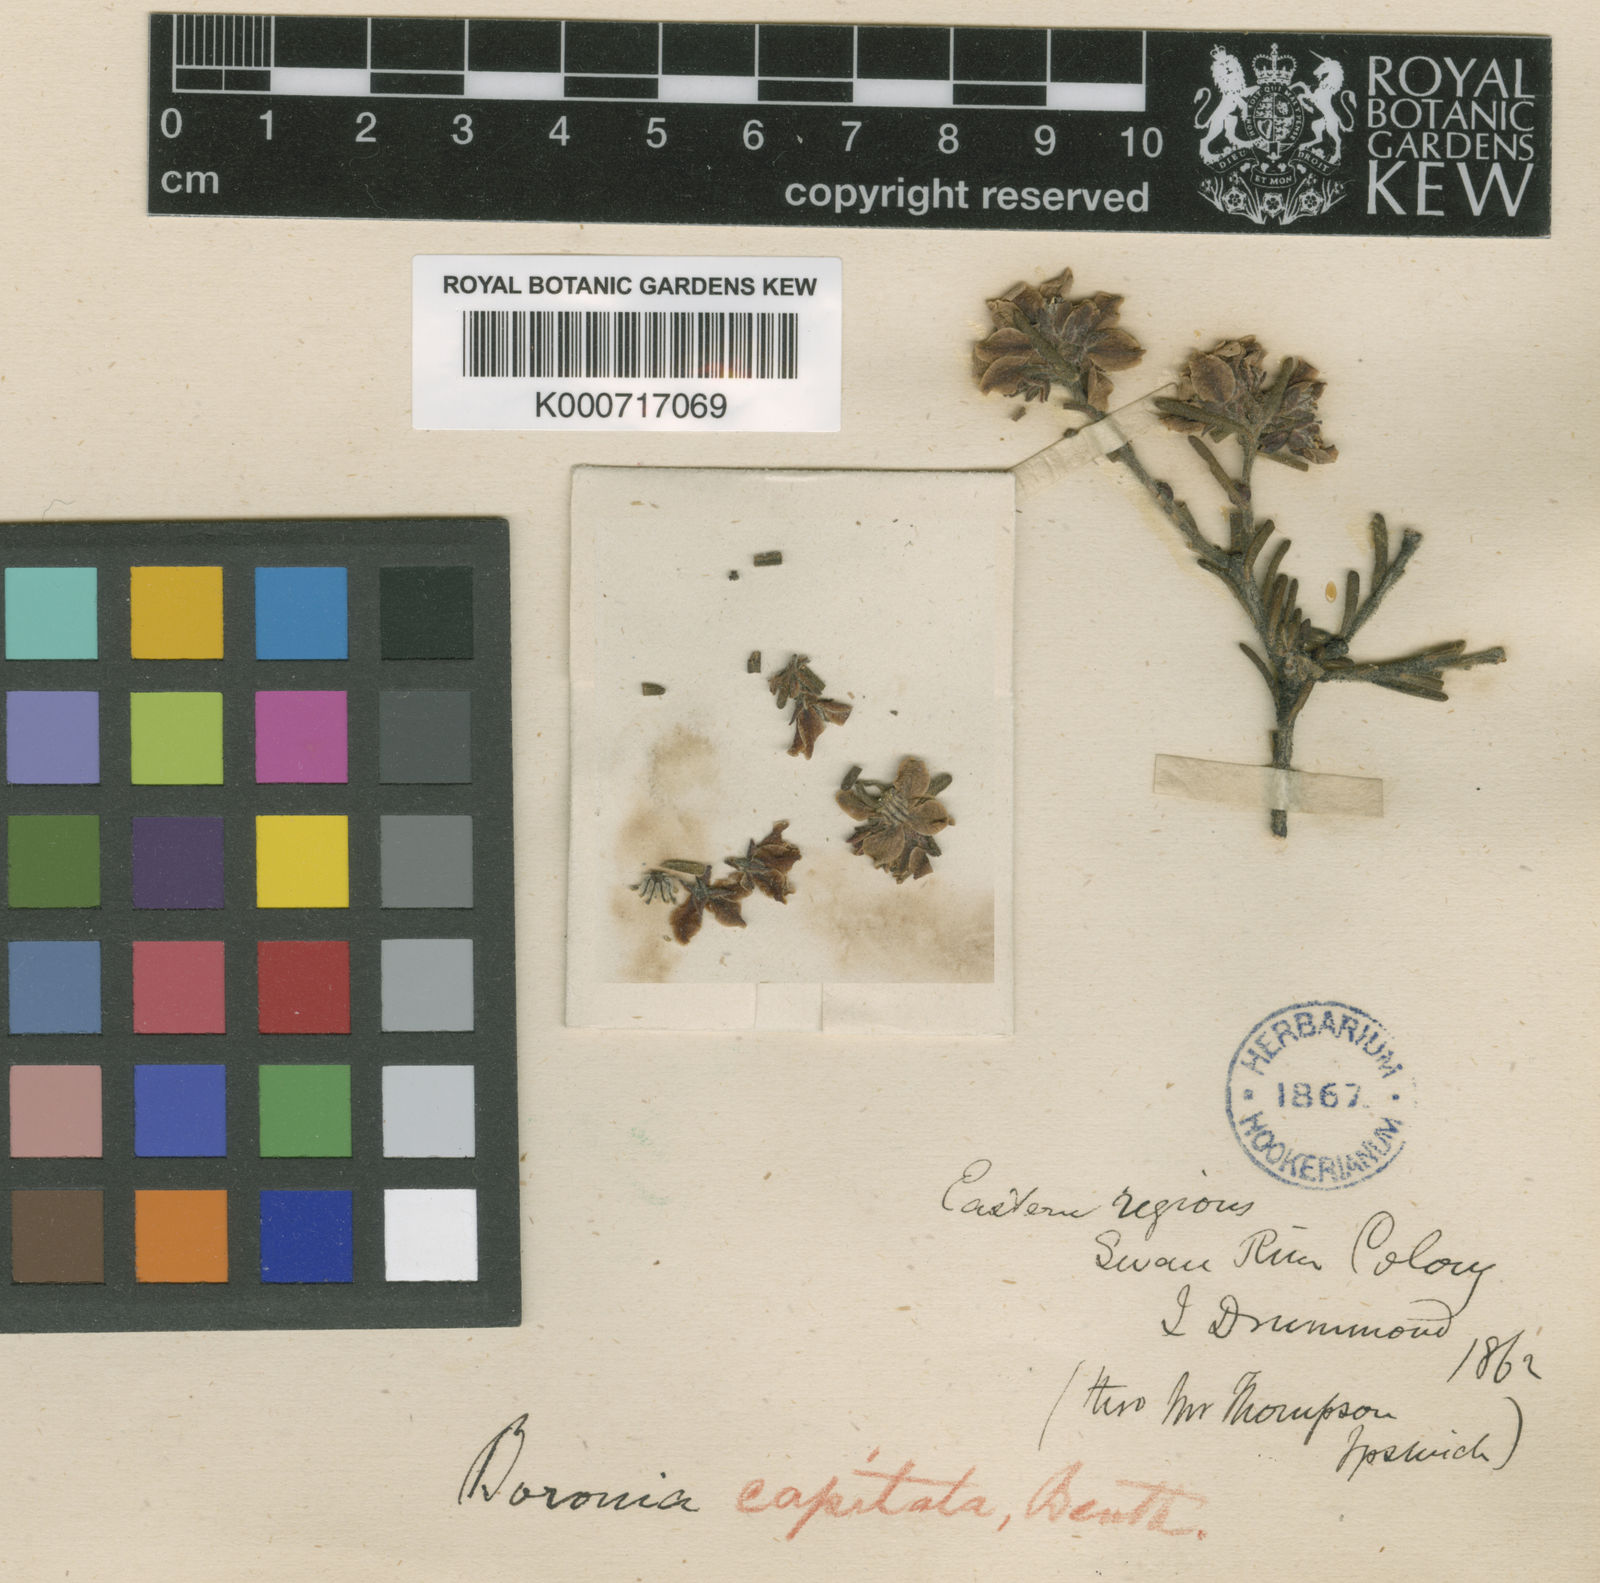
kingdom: Plantae
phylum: Tracheophyta
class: Magnoliopsida
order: Sapindales
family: Rutaceae
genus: Boronia
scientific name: Boronia capitata
